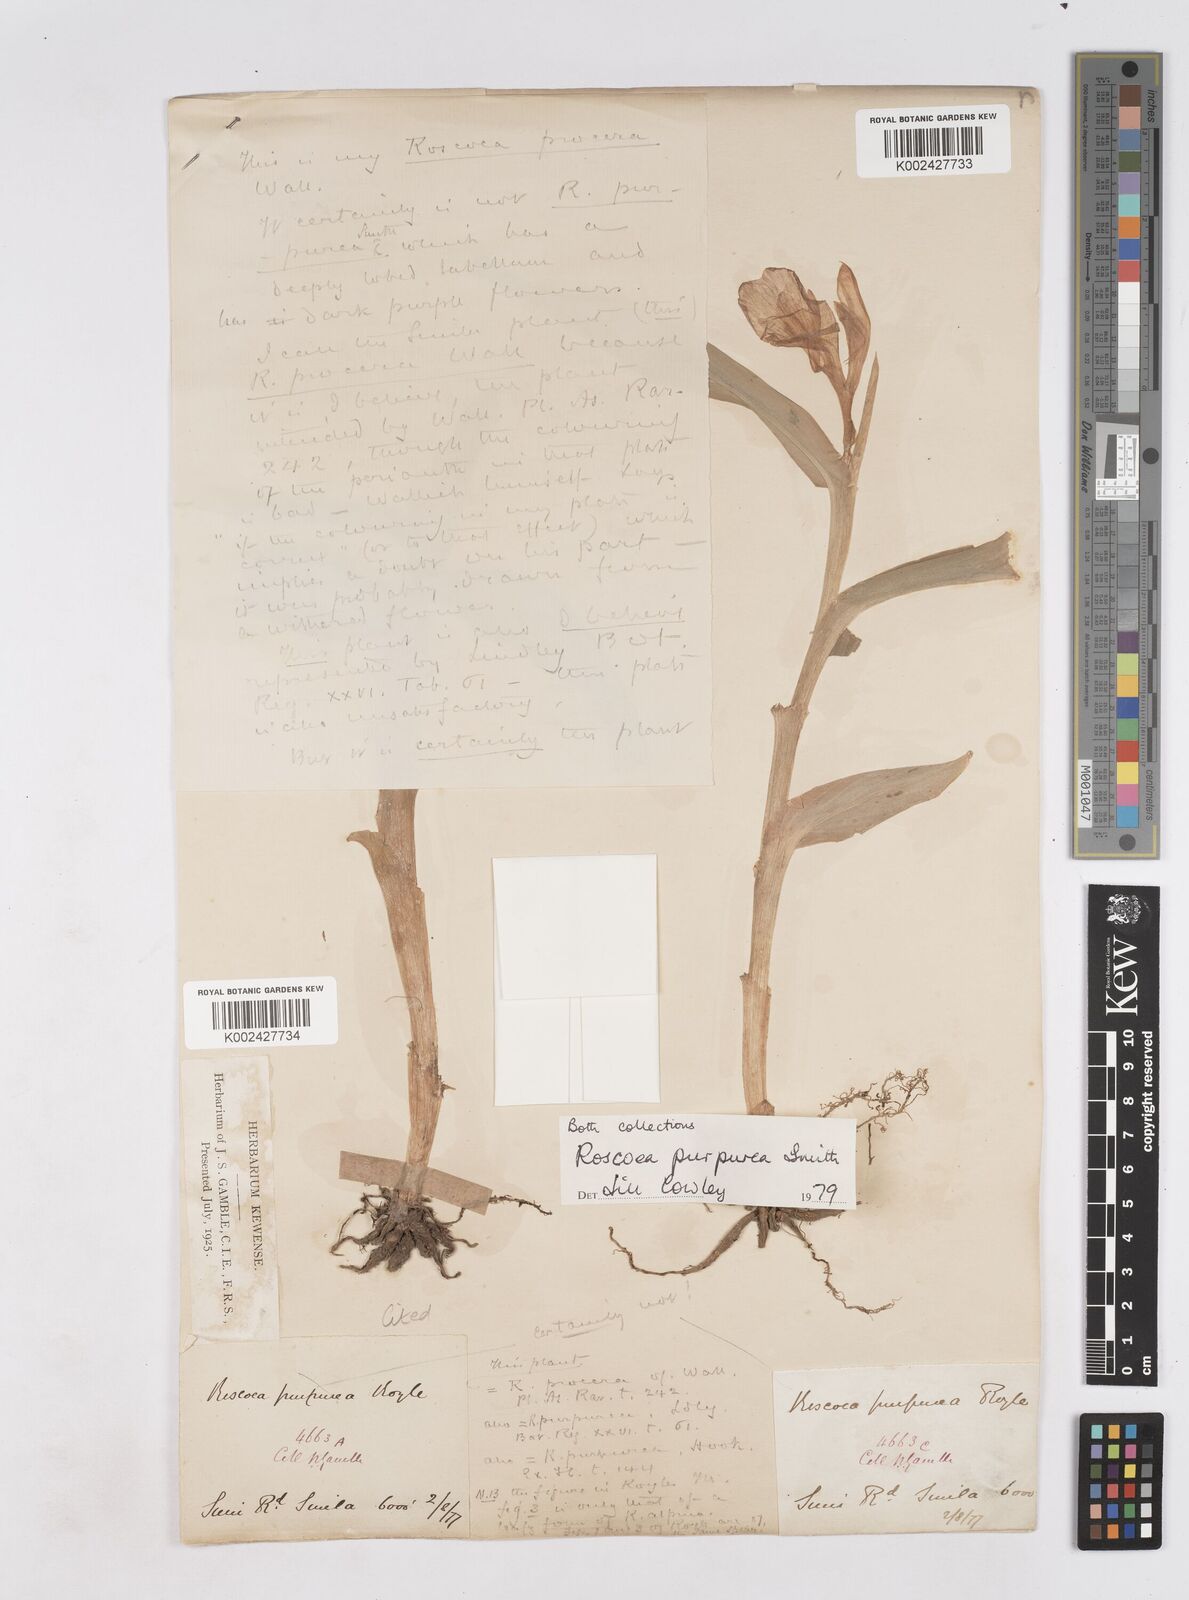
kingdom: Plantae
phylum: Tracheophyta
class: Liliopsida
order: Zingiberales
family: Zingiberaceae
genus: Roscoea
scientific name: Roscoea purpurea
